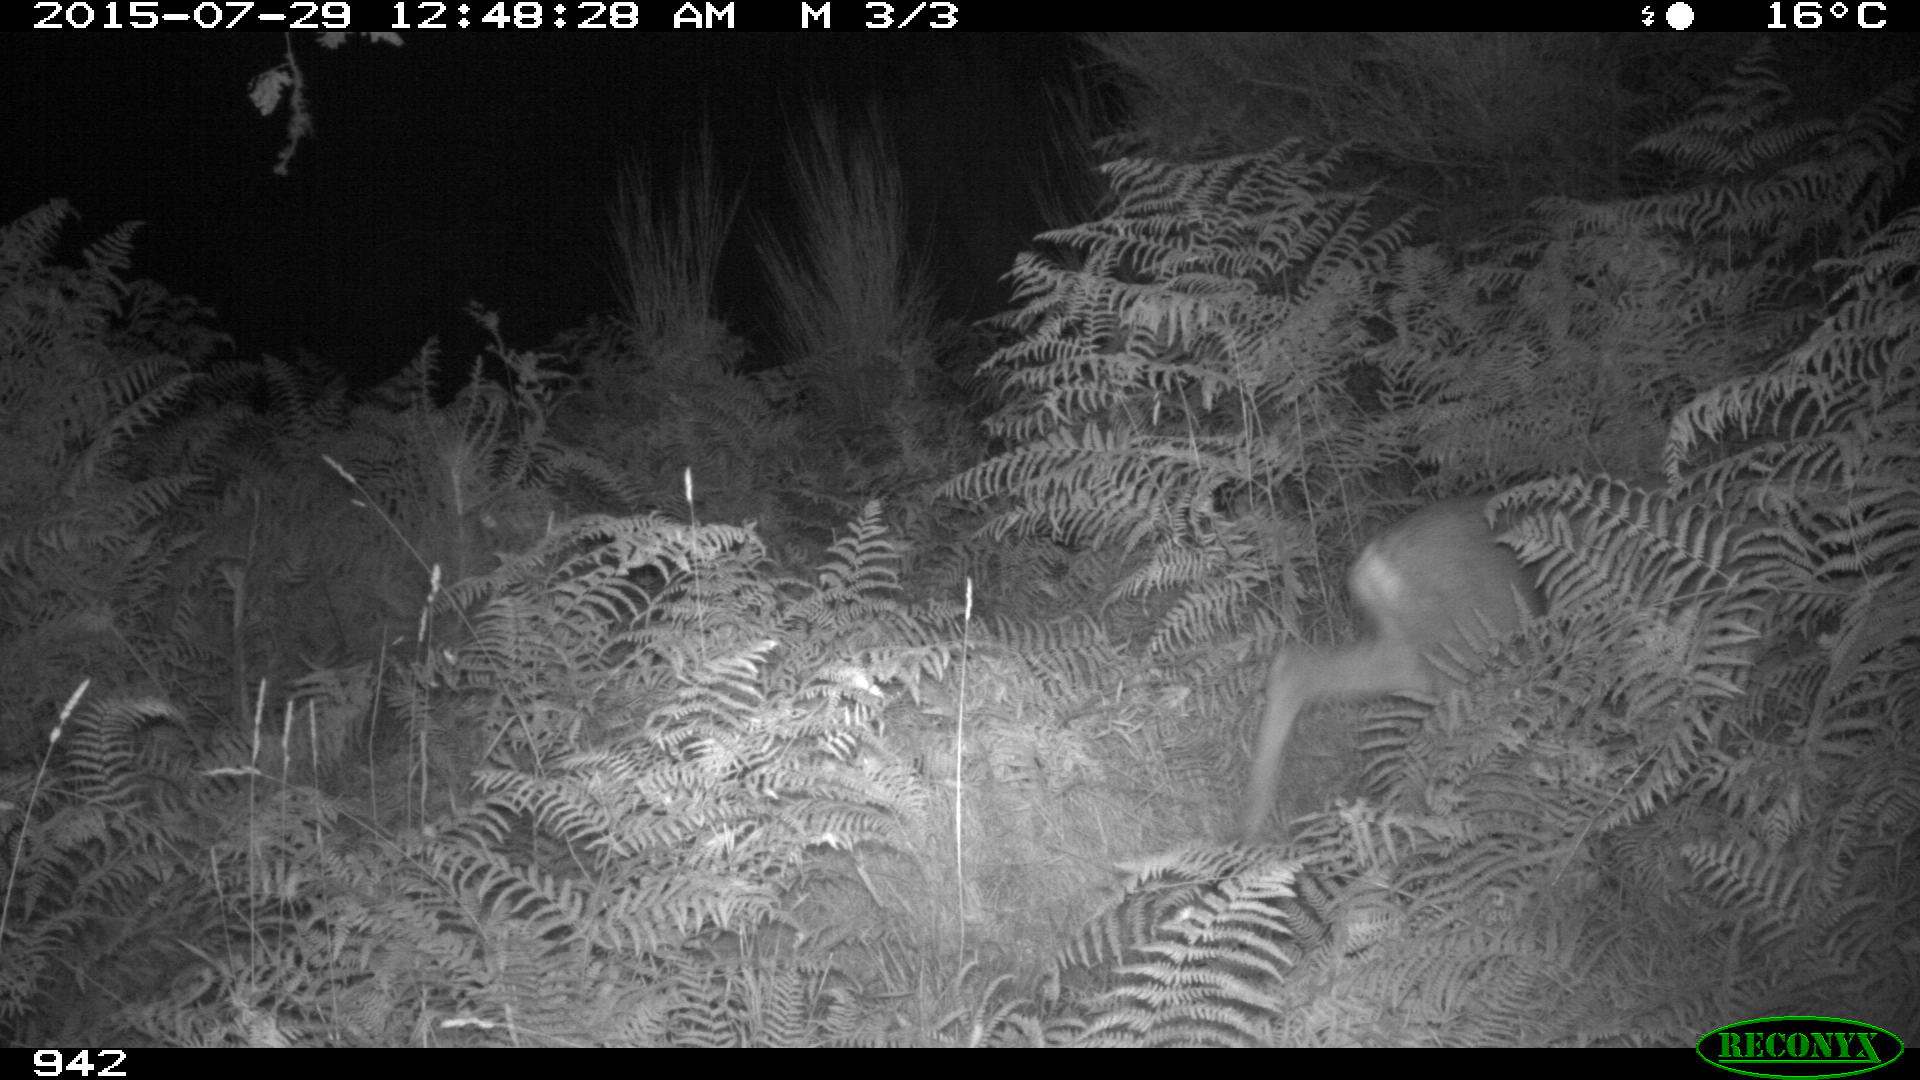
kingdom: Animalia
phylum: Chordata
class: Mammalia
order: Artiodactyla
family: Cervidae
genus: Capreolus
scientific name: Capreolus capreolus
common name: Western roe deer
